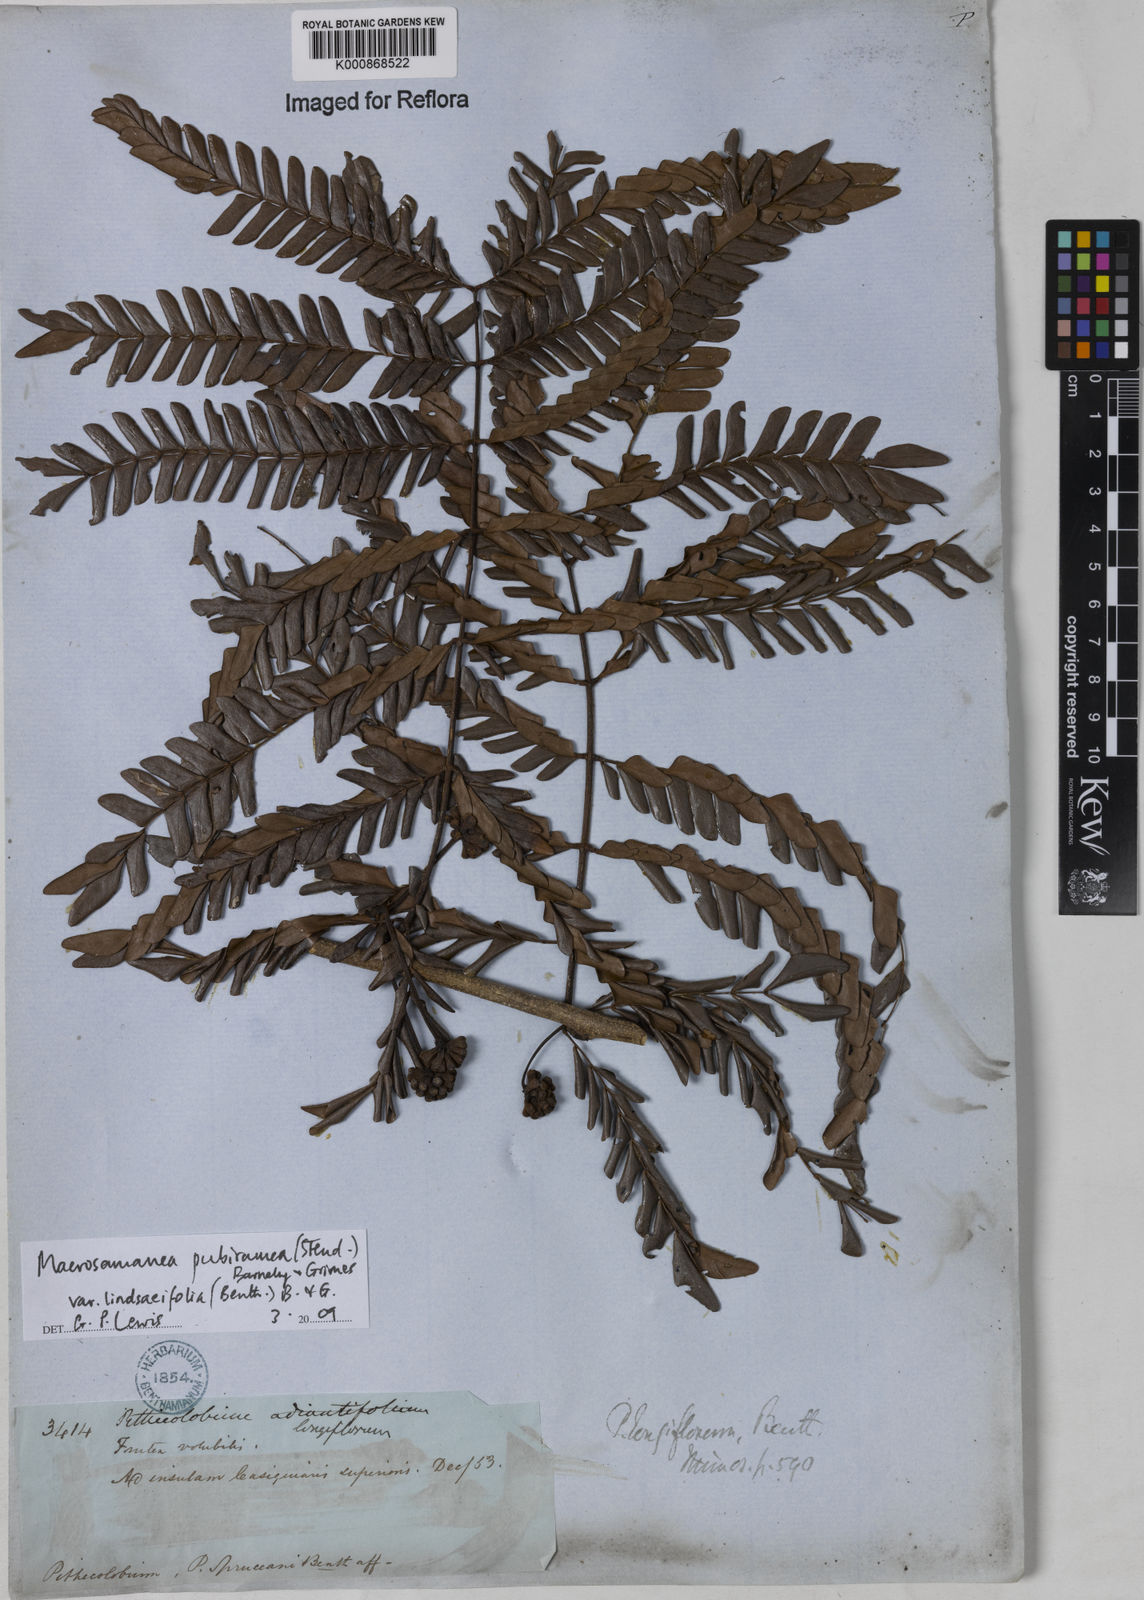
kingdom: Plantae
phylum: Tracheophyta
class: Magnoliopsida
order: Fabales
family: Fabaceae
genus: Macrosamanea
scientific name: Macrosamanea pubiramea
